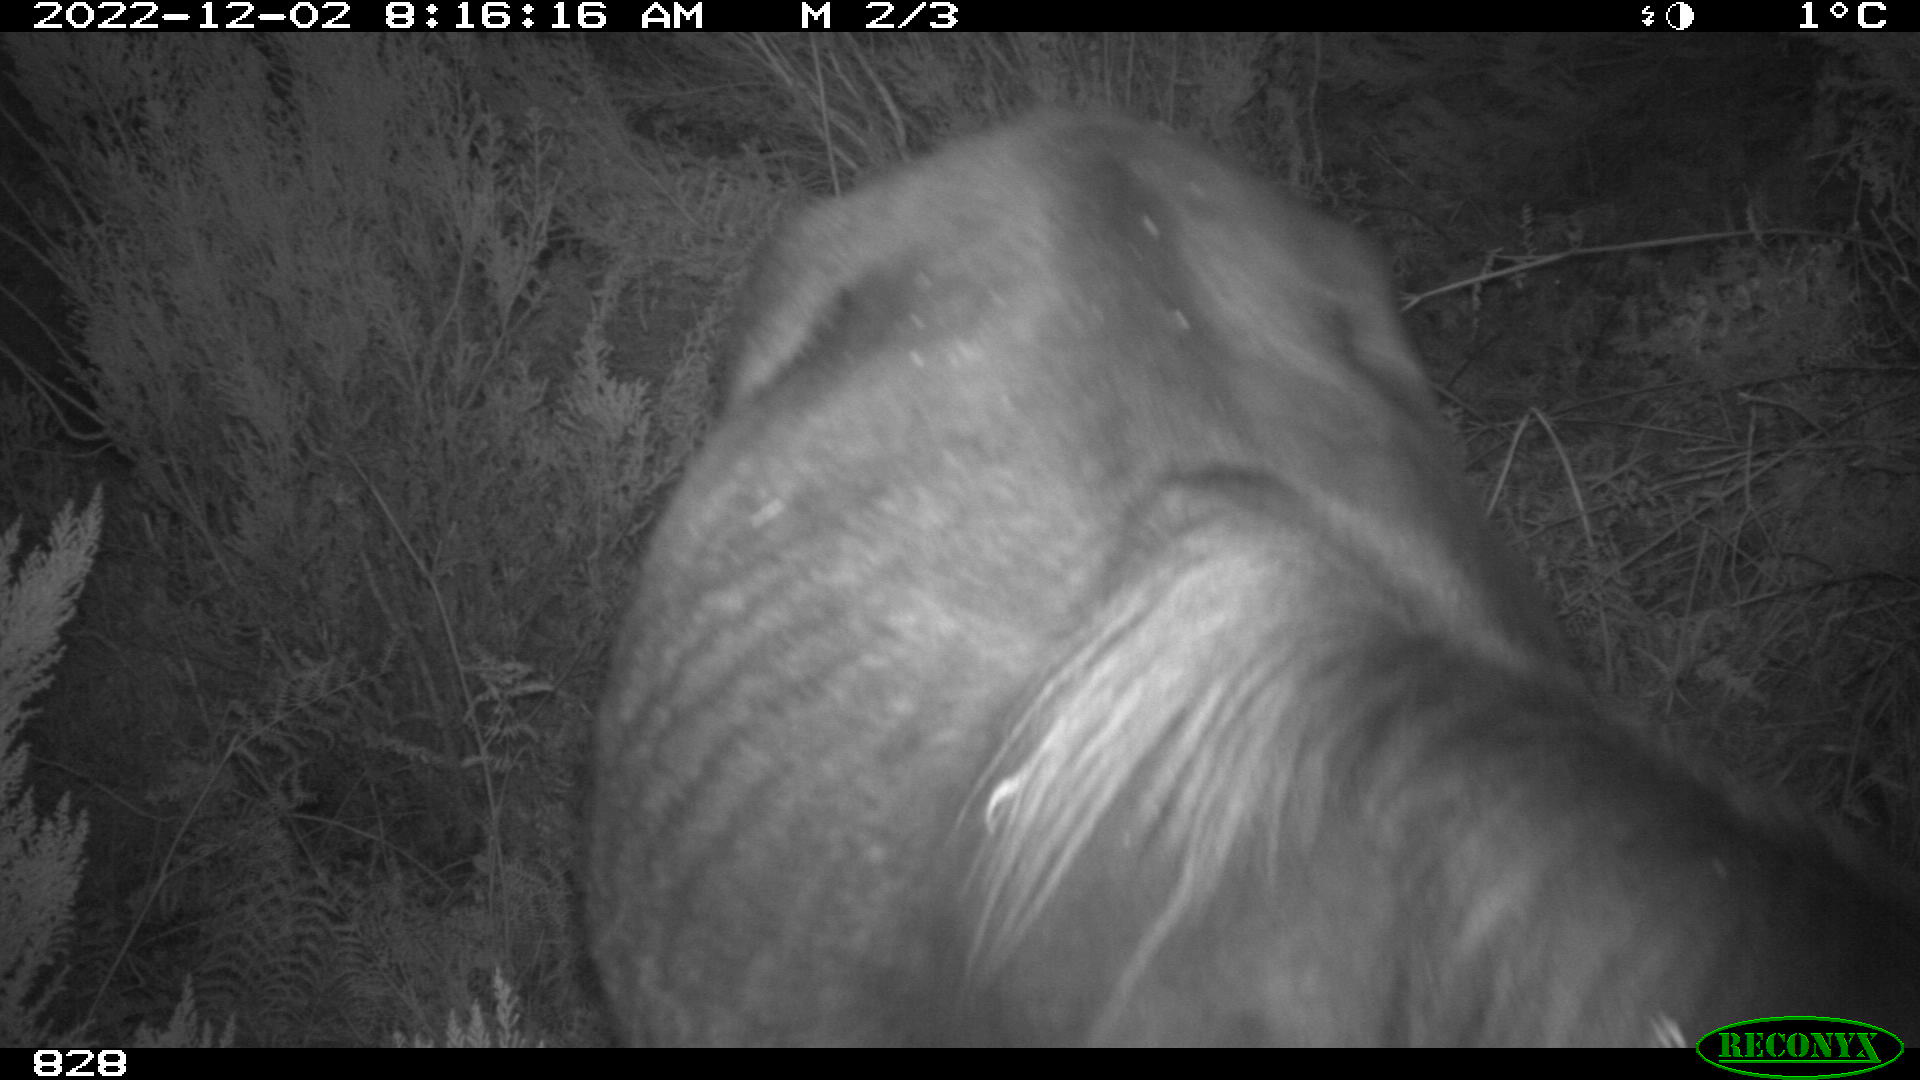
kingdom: Animalia
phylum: Chordata
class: Mammalia
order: Perissodactyla
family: Equidae
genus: Equus
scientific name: Equus caballus
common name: Horse
